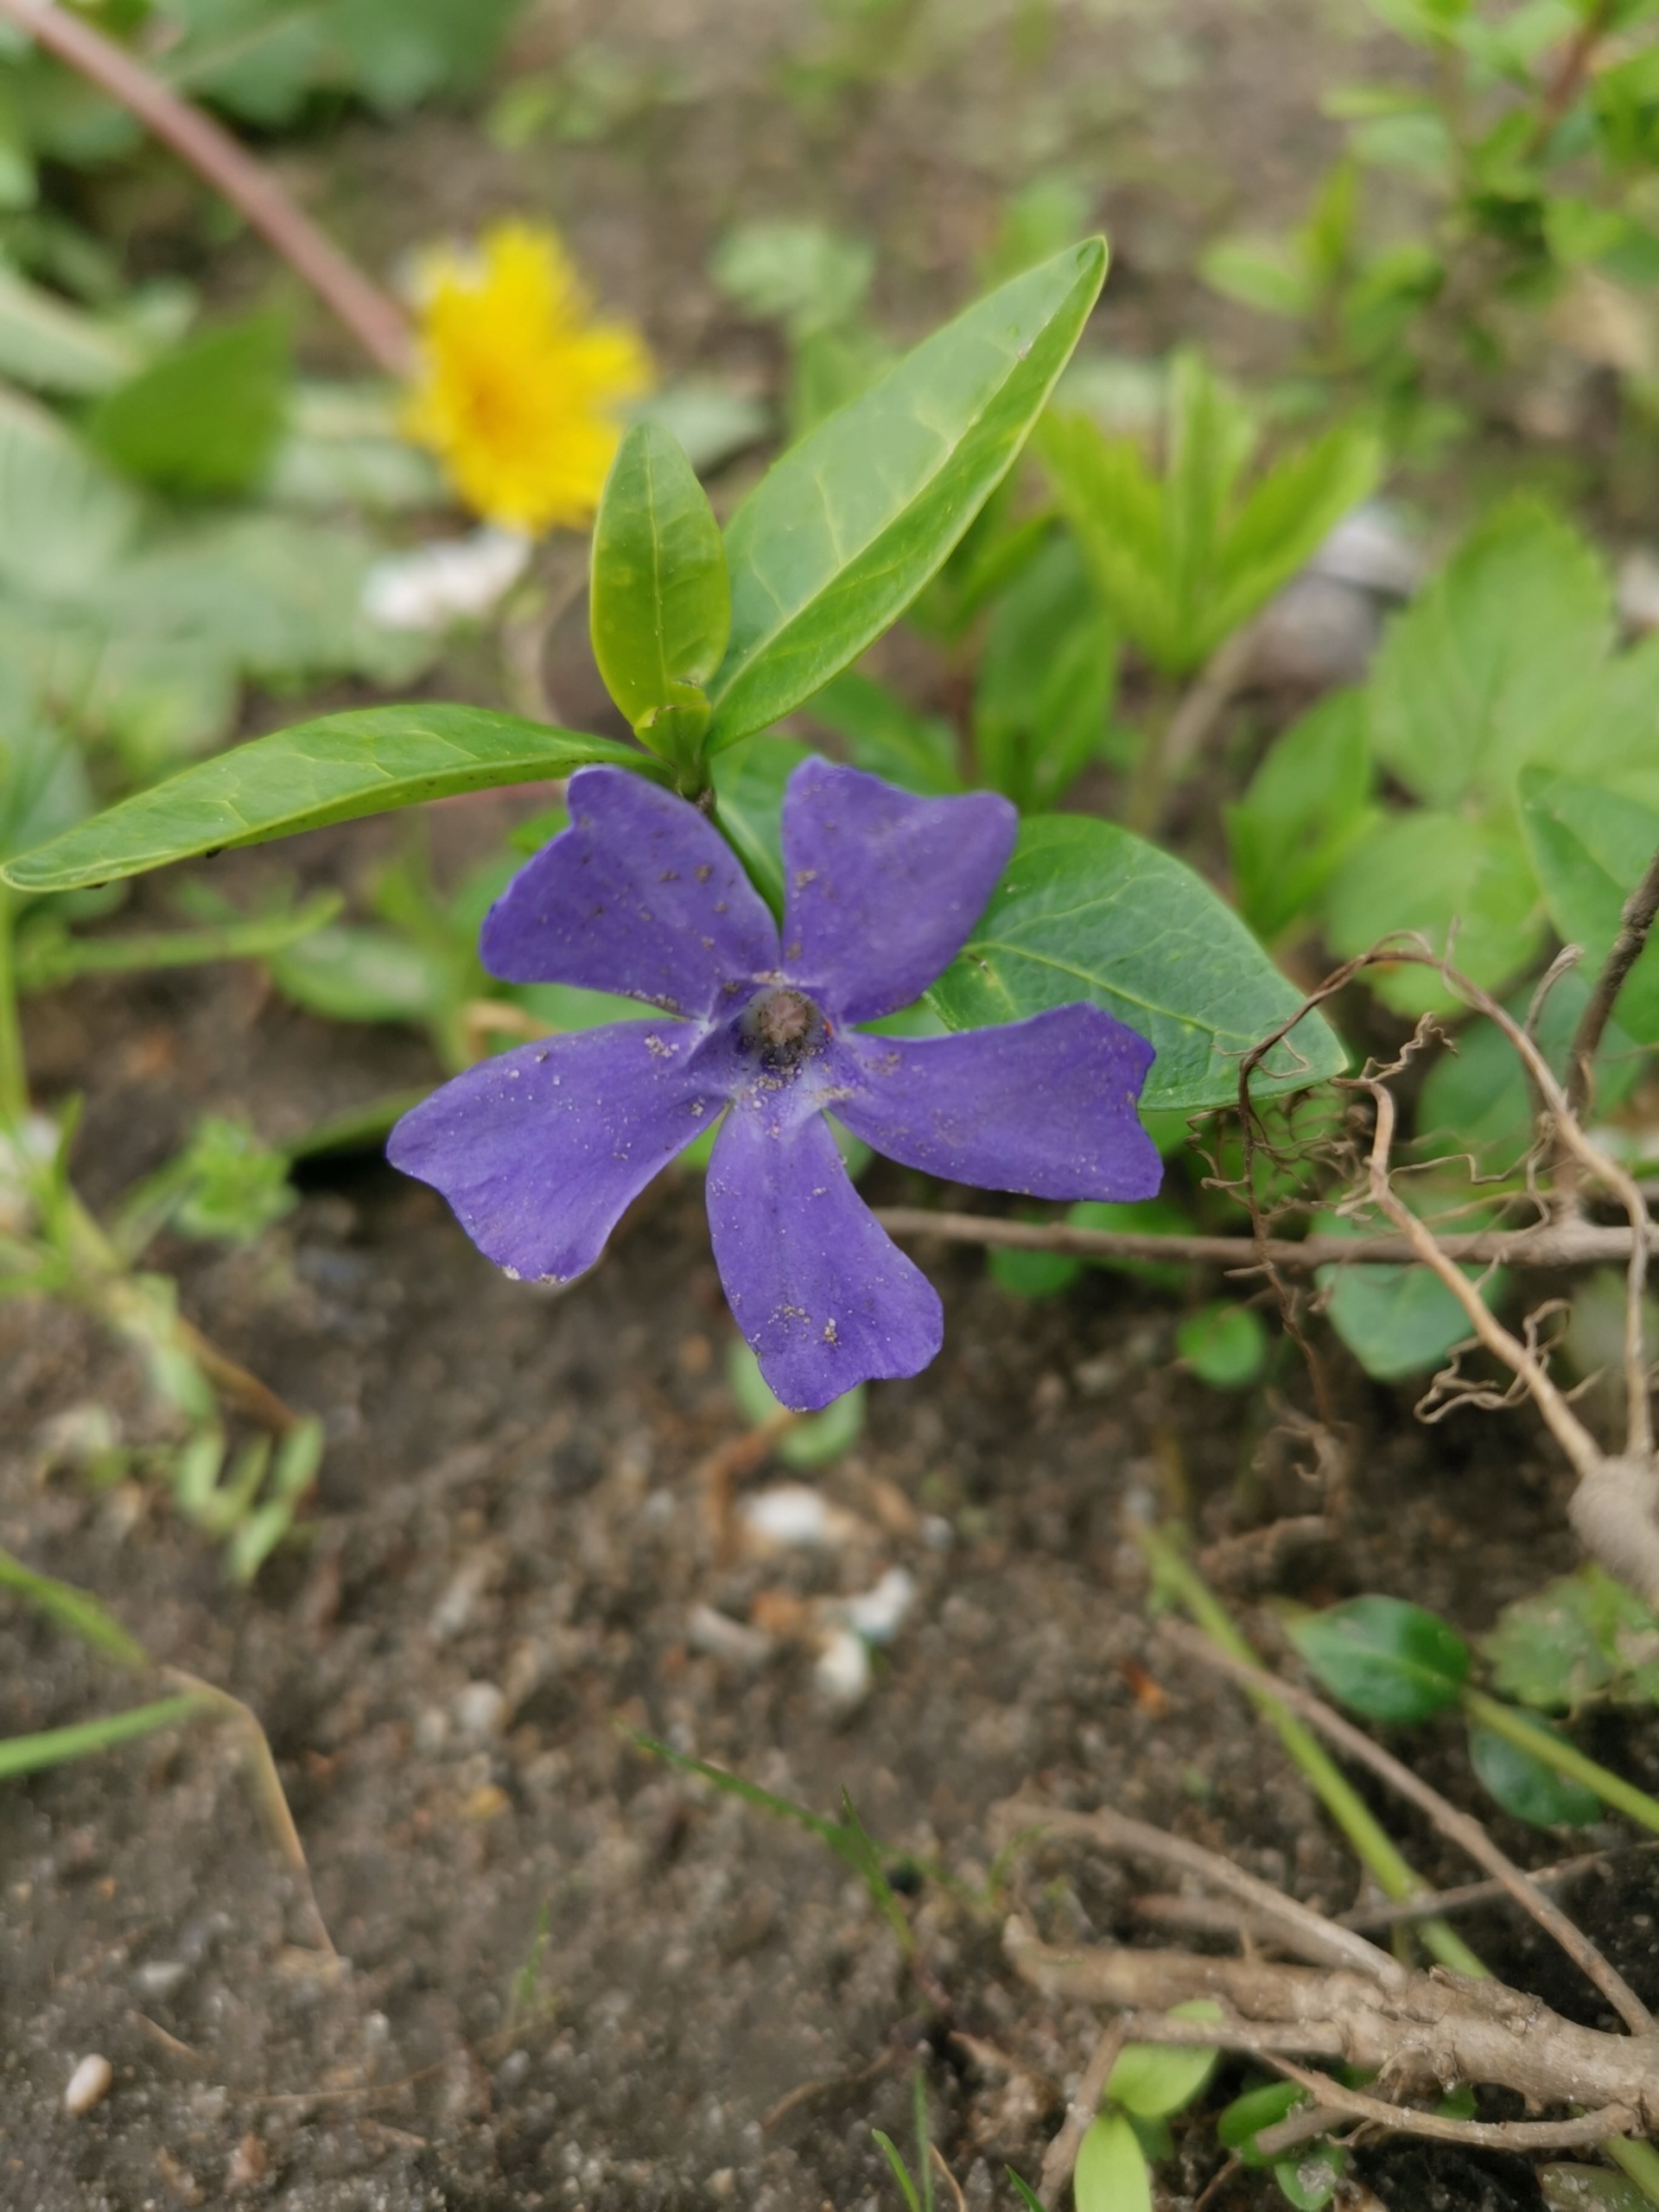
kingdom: Plantae
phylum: Tracheophyta
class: Magnoliopsida
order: Gentianales
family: Apocynaceae
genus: Vinca
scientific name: Vinca minor
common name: Liden singrøn
